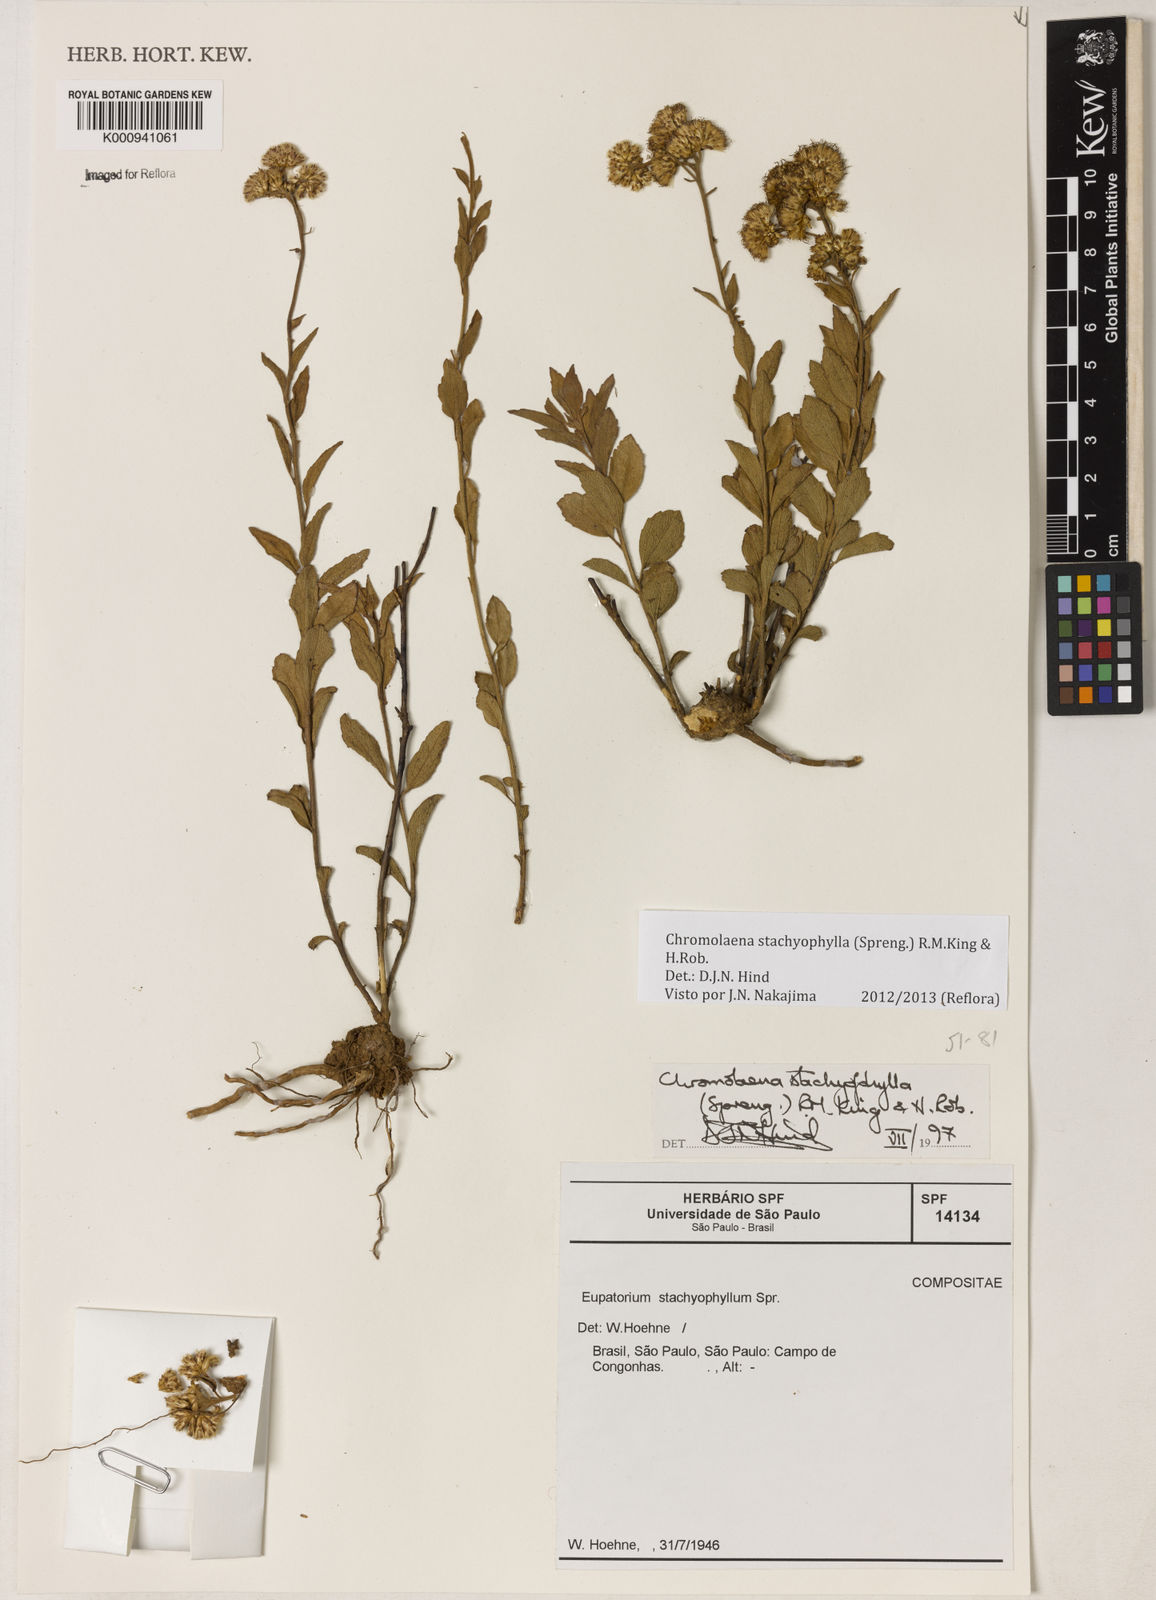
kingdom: Plantae
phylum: Tracheophyta
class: Magnoliopsida
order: Asterales
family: Asteraceae
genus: Chromolaena
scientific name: Chromolaena stachyophylla
